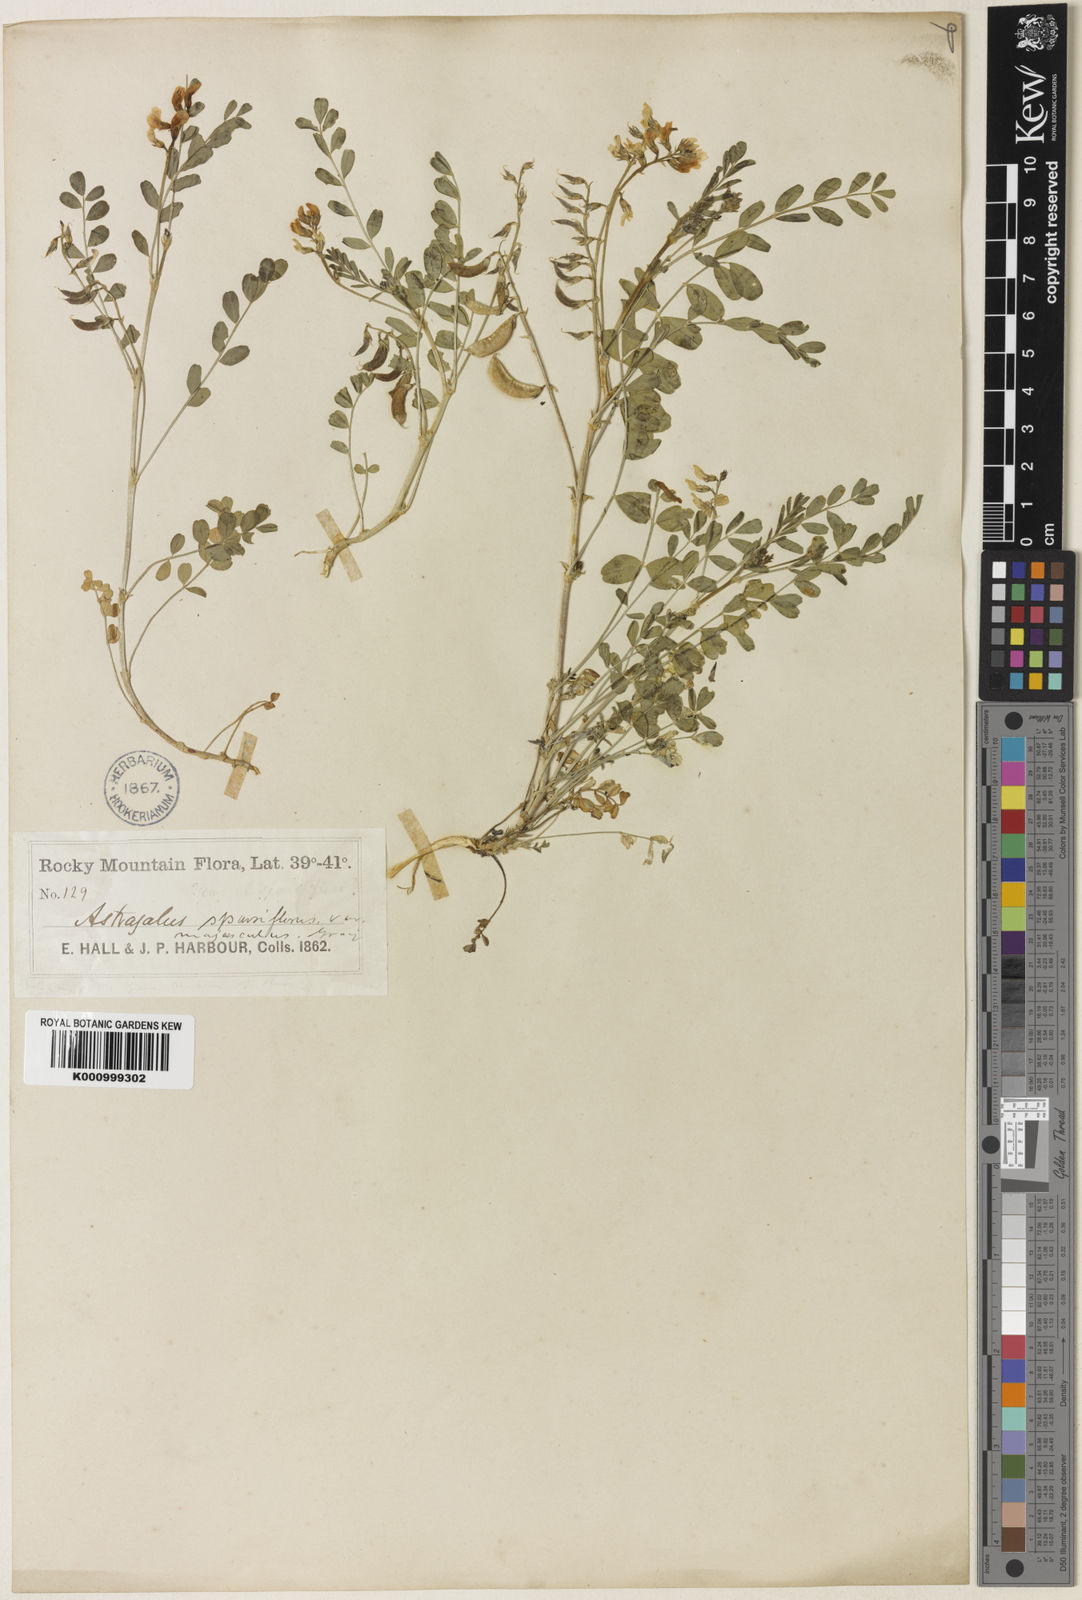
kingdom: Plantae
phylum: Tracheophyta
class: Magnoliopsida
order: Fabales
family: Fabaceae
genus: Astragalus
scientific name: Astragalus sparsiflorus
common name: Front range milkvetch
